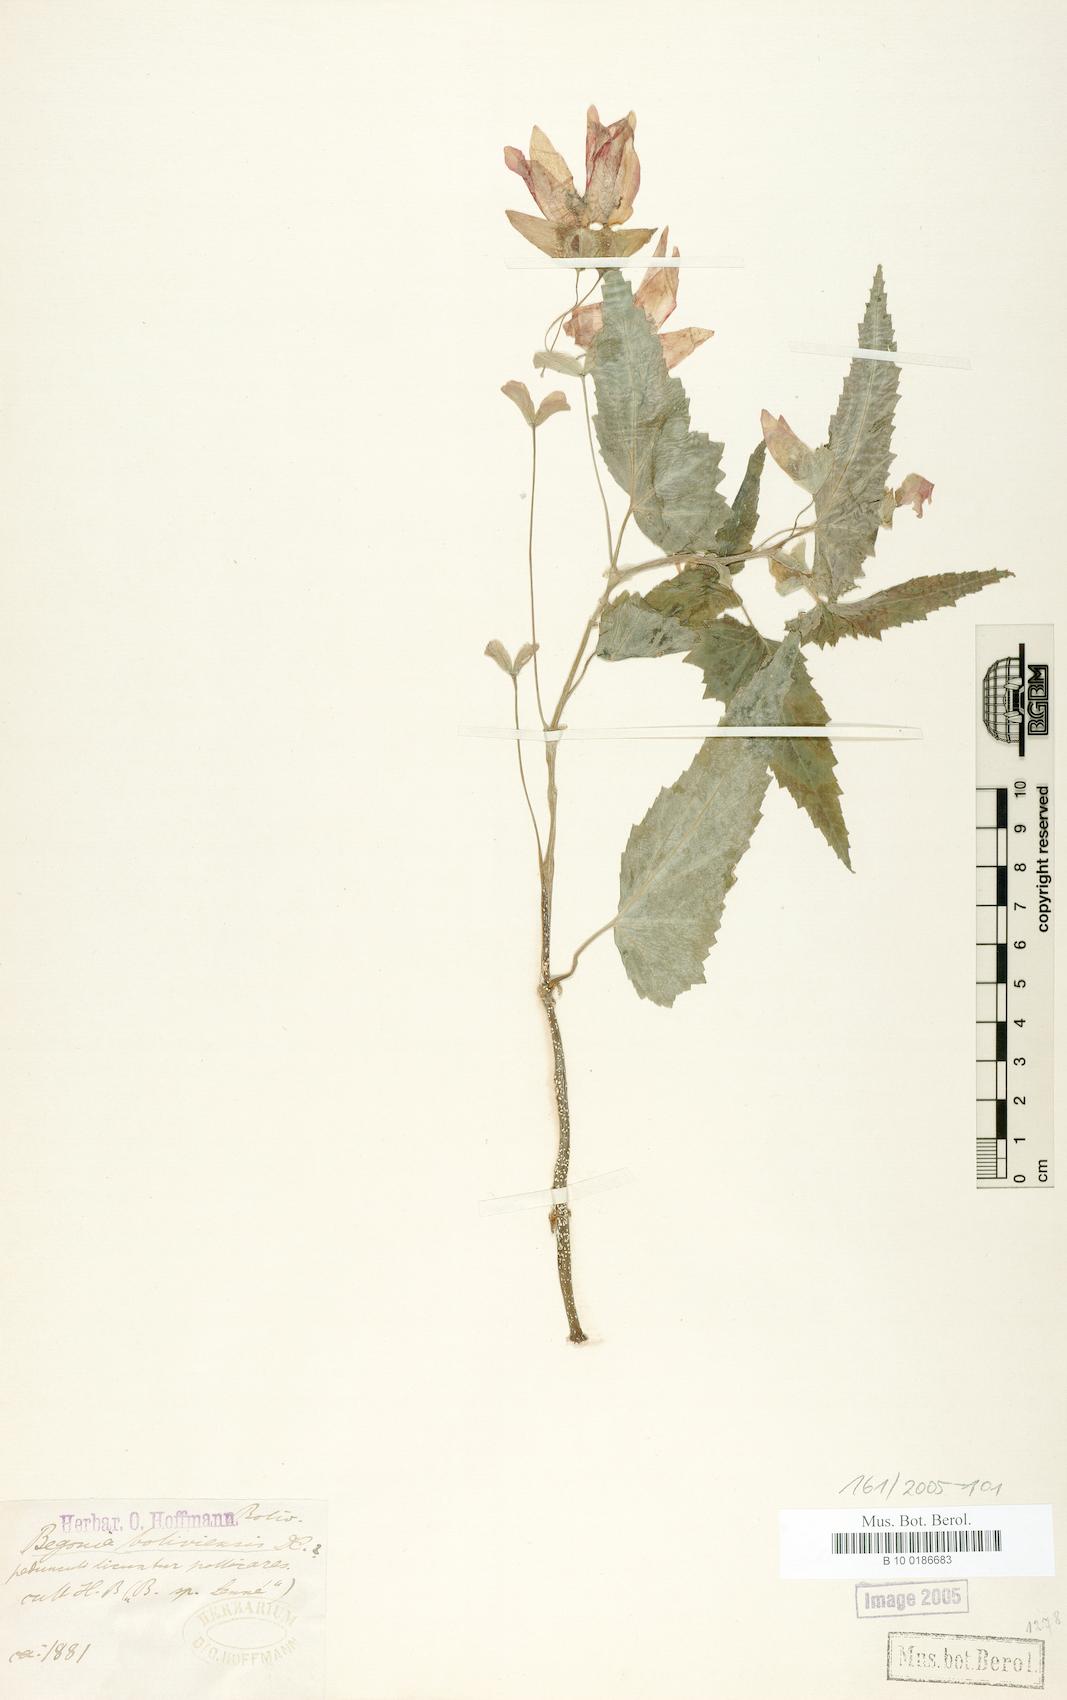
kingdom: Plantae
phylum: Tracheophyta
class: Magnoliopsida
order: Cucurbitales
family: Begoniaceae
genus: Begonia
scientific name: Begonia boliviensis
